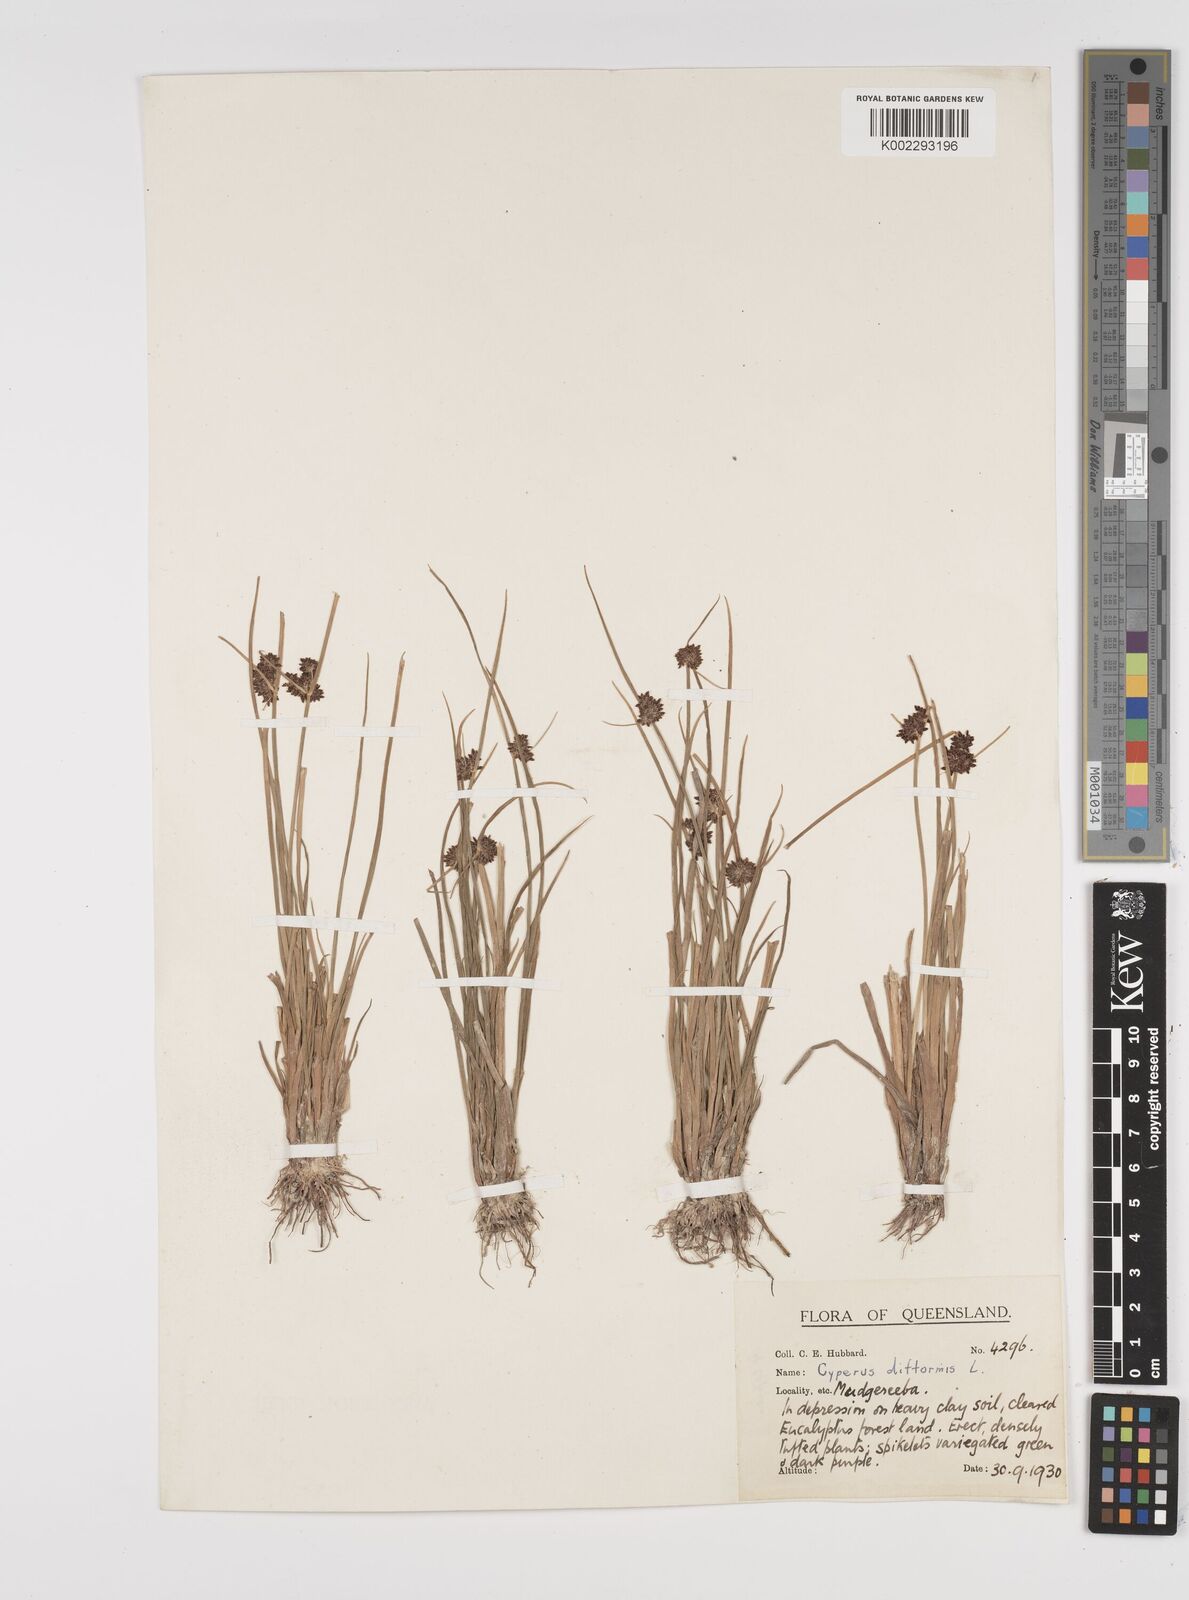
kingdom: Plantae
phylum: Tracheophyta
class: Liliopsida
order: Poales
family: Cyperaceae
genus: Cyperus
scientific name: Cyperus difformis
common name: Variable flatsedge
